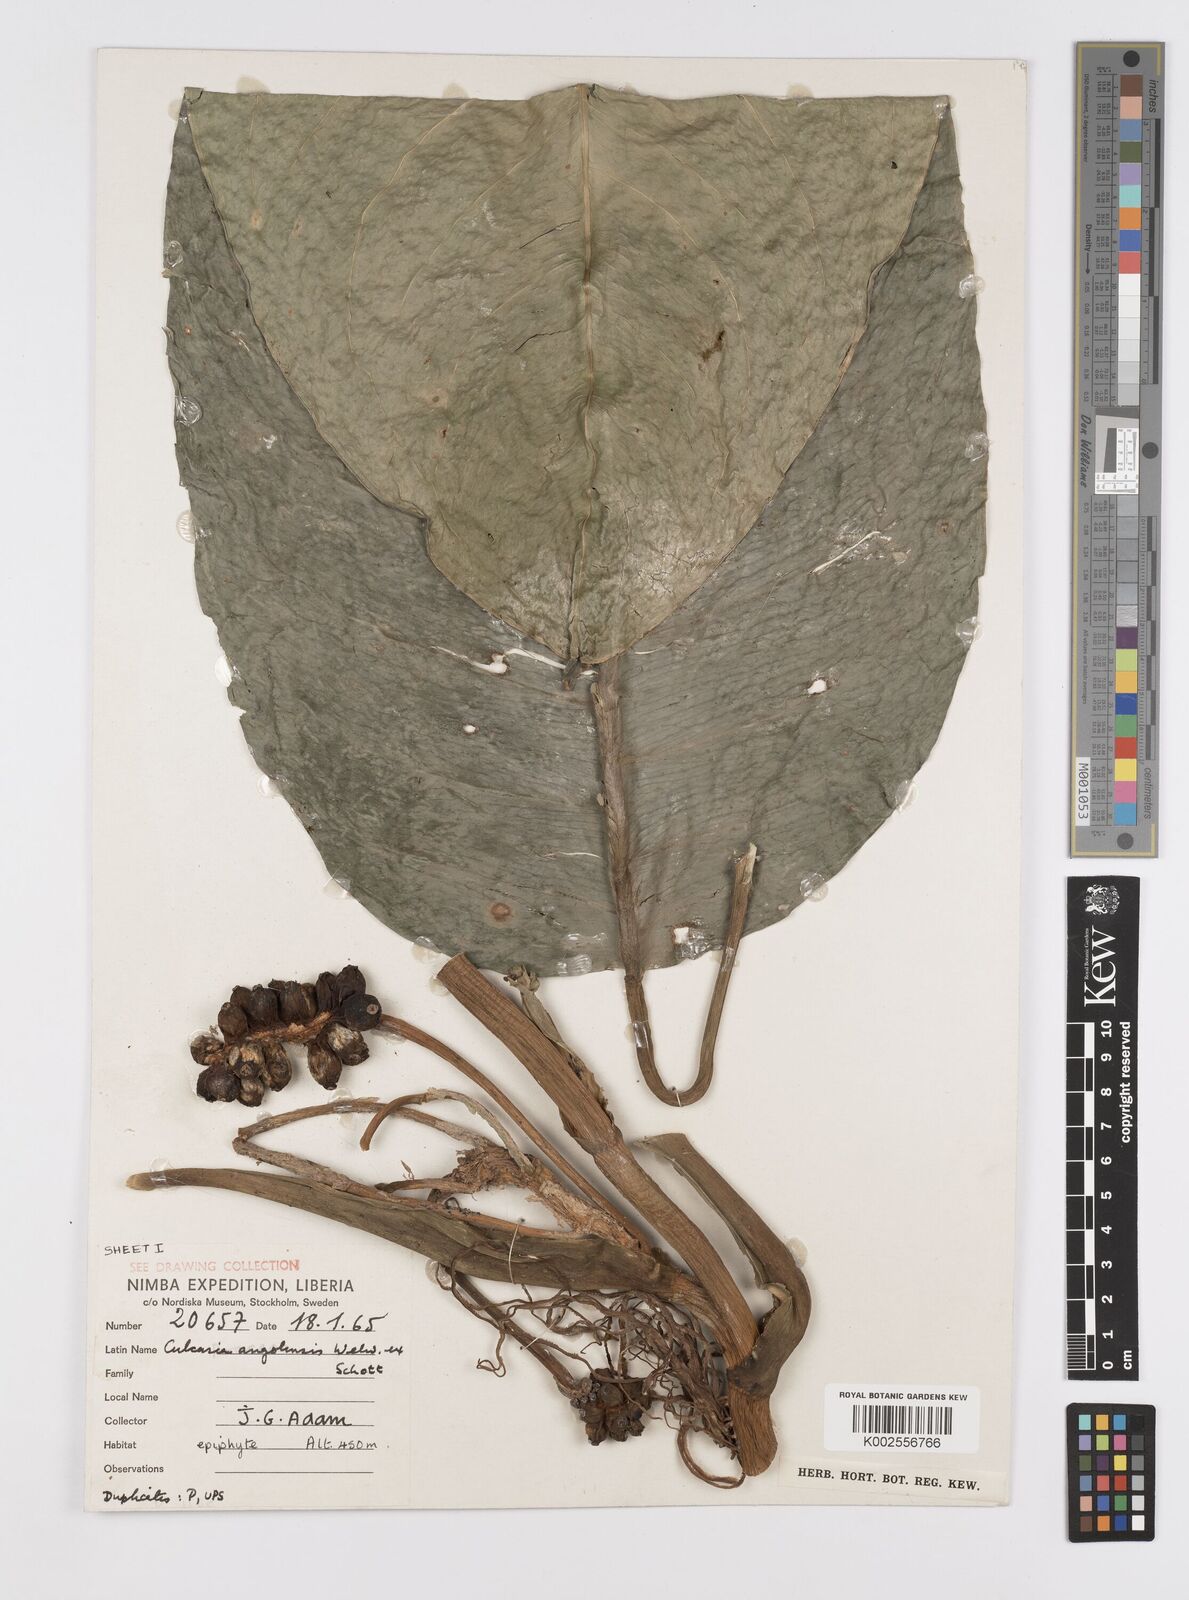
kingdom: Plantae
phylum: Tracheophyta
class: Liliopsida
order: Alismatales
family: Araceae
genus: Culcasia
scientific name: Culcasia angolensis
